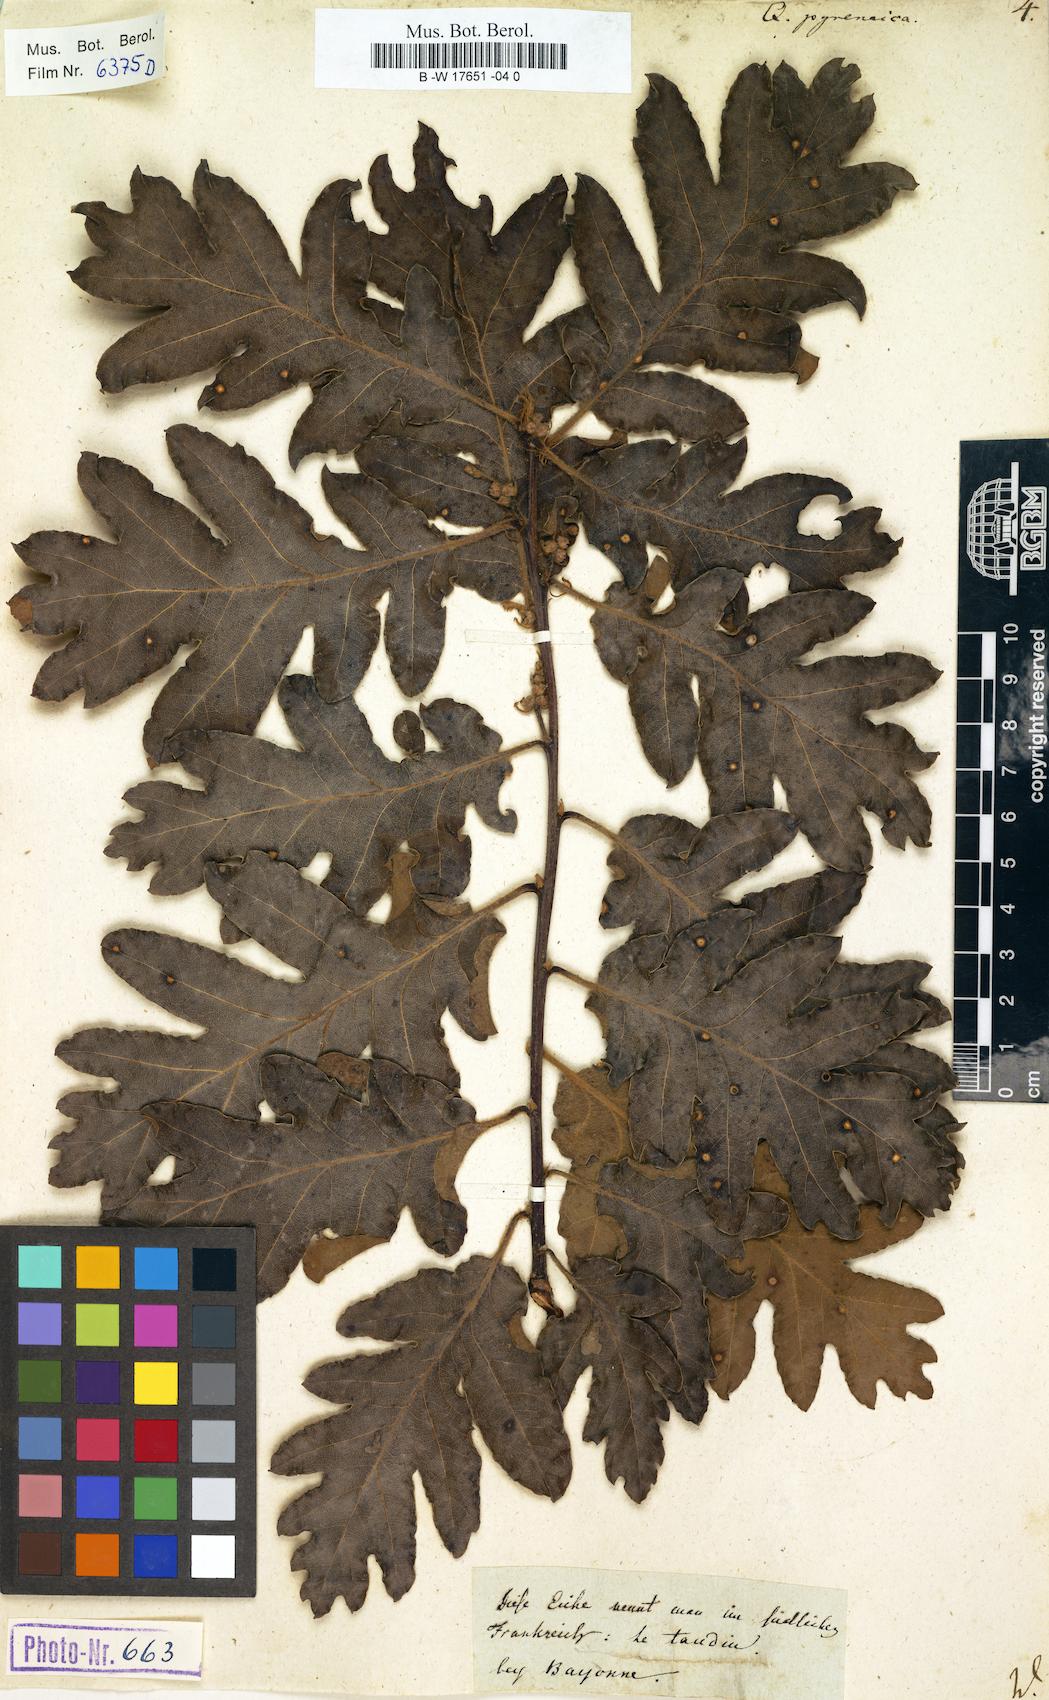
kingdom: Plantae
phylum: Tracheophyta
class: Magnoliopsida
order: Fagales
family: Fagaceae
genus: Quercus
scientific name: Quercus pyrenaica
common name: Pyrenean oak
